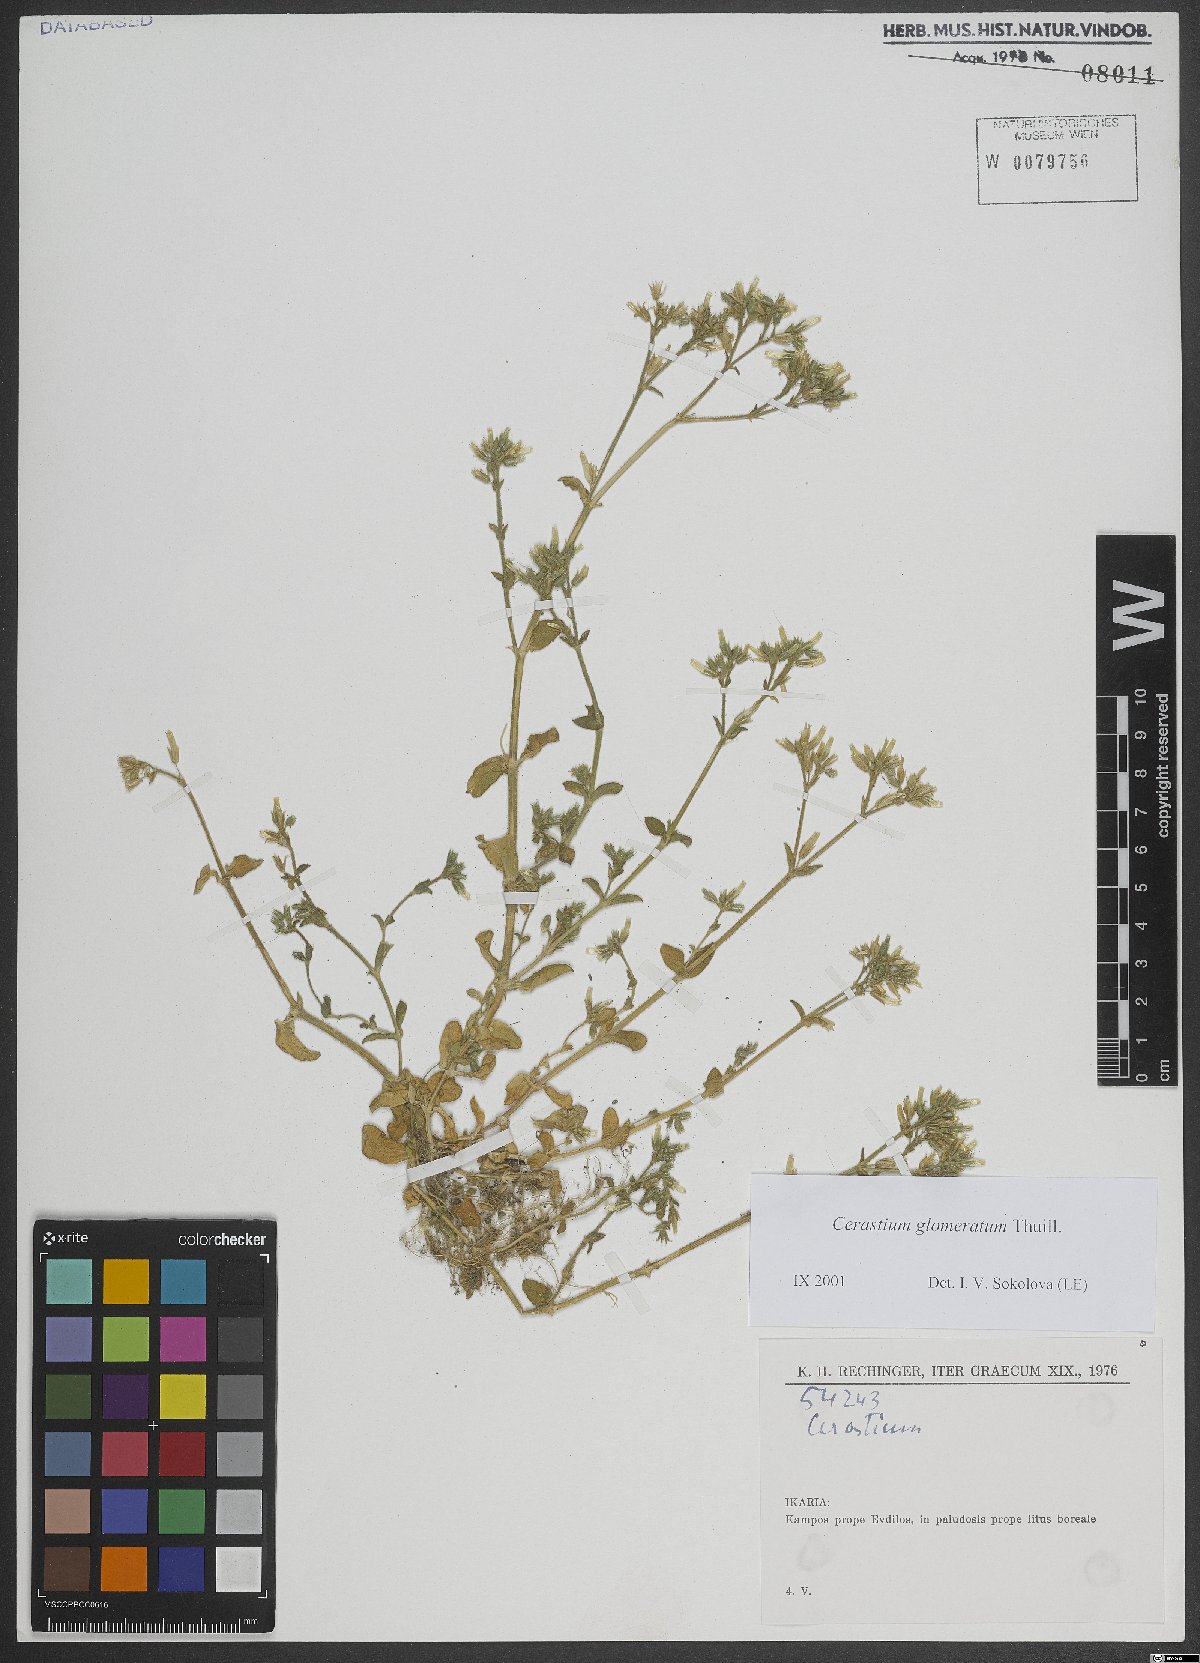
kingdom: Plantae
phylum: Tracheophyta
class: Magnoliopsida
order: Caryophyllales
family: Caryophyllaceae
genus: Cerastium
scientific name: Cerastium glomeratum
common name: Sticky chickweed
